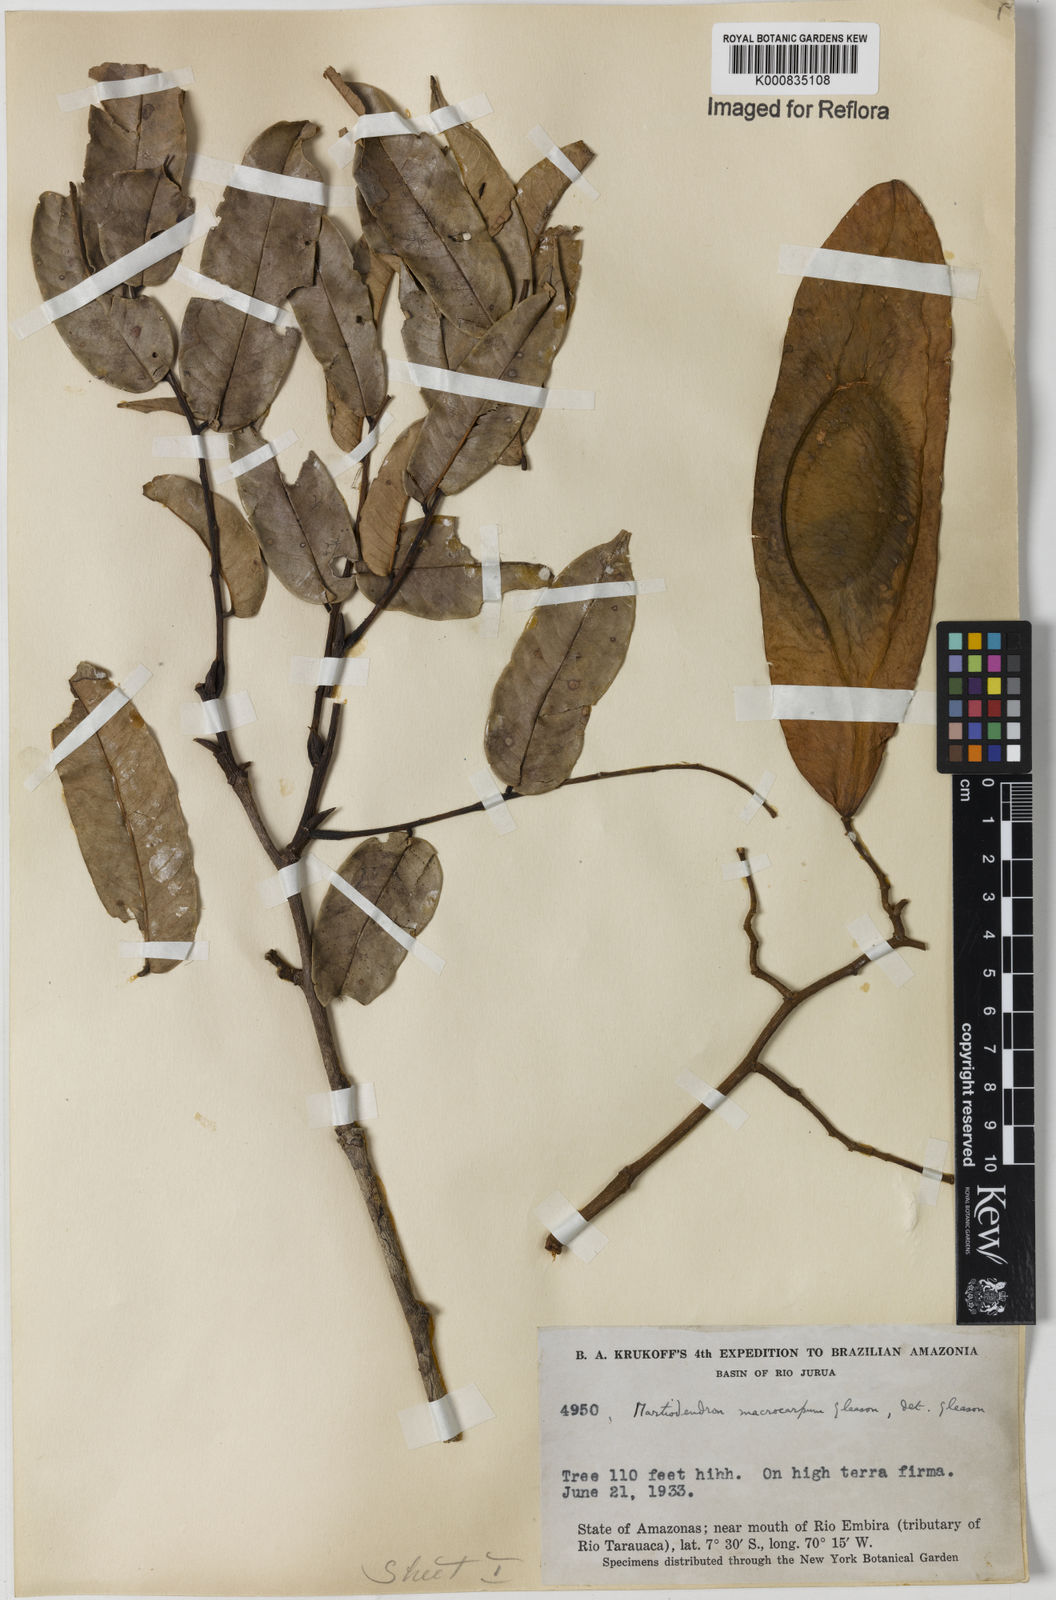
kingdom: Plantae
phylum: Tracheophyta
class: Magnoliopsida
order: Fabales
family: Fabaceae
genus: Martiodendron
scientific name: Martiodendron elatum
